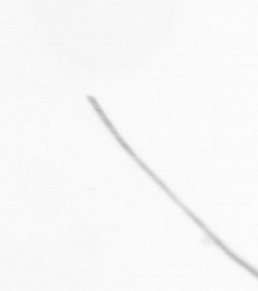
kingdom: Chromista
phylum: Ochrophyta
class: Bacillariophyceae
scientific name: Bacillariophyceae
